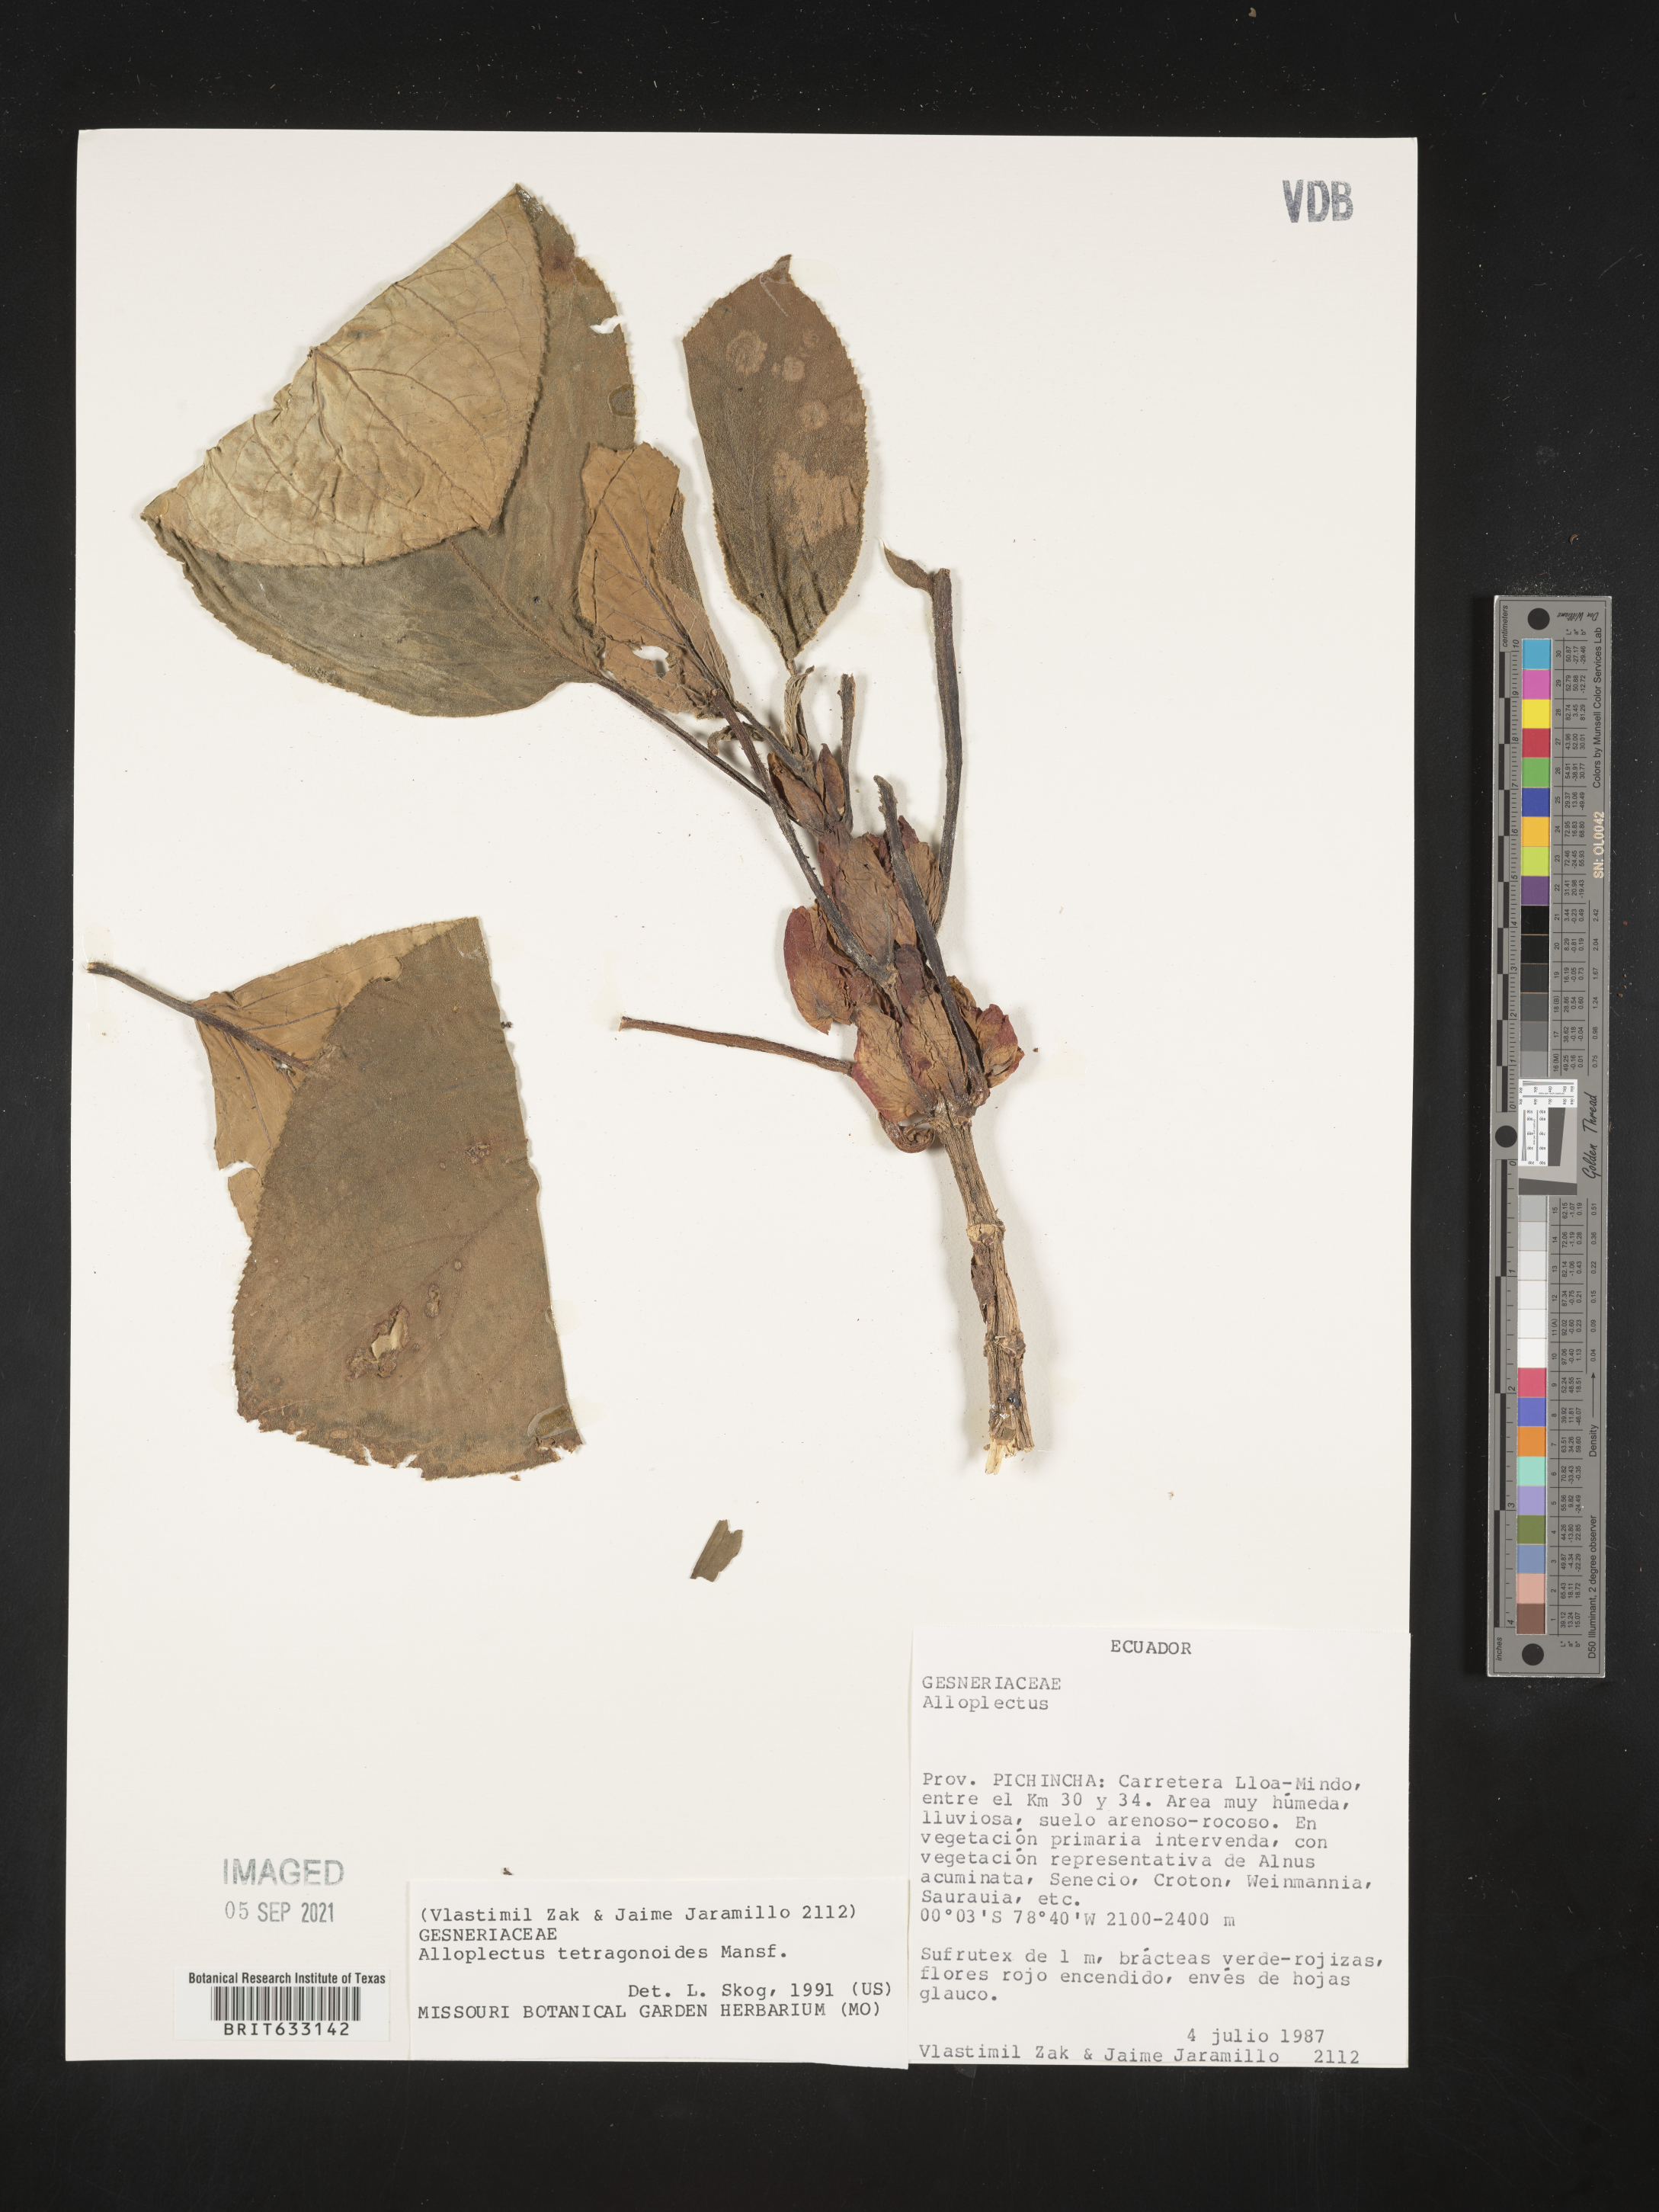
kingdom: Plantae
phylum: Tracheophyta
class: Magnoliopsida
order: Lamiales
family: Gesneriaceae
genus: Alloplectus
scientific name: Alloplectus
